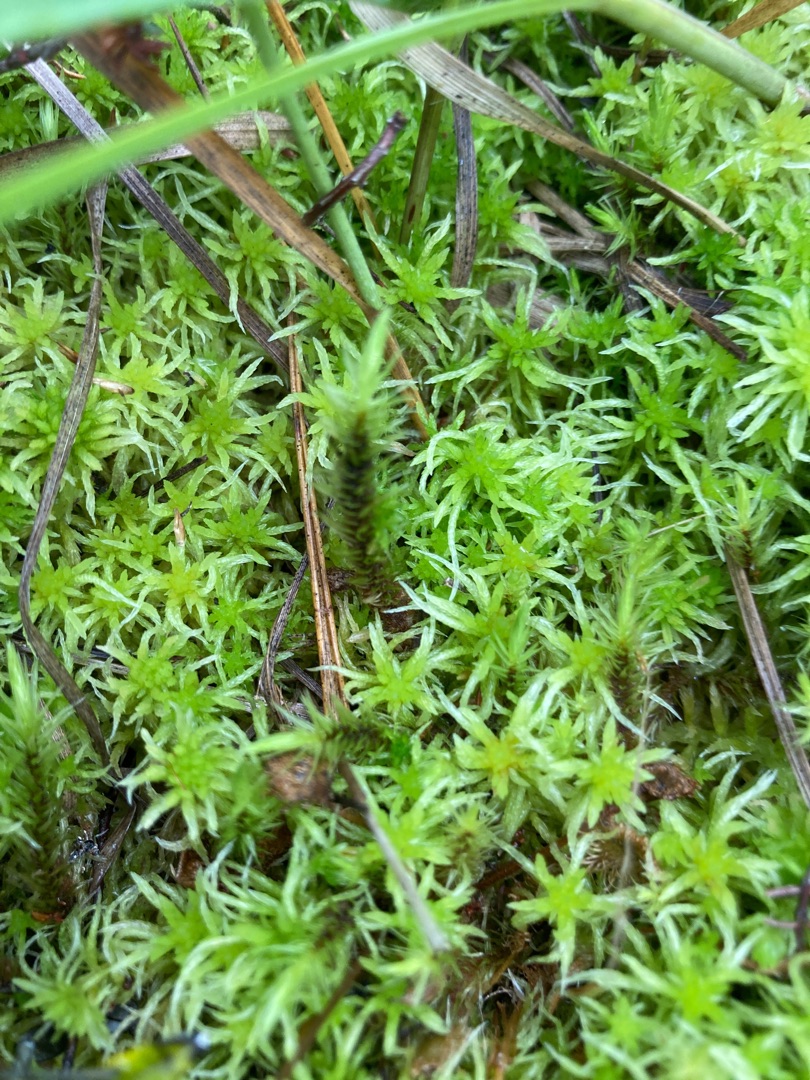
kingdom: Plantae
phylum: Bryophyta
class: Bryopsida
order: Aulacomniales
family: Aulacomniaceae
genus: Aulacomnium
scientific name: Aulacomnium palustre
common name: Almindelig filtmos
